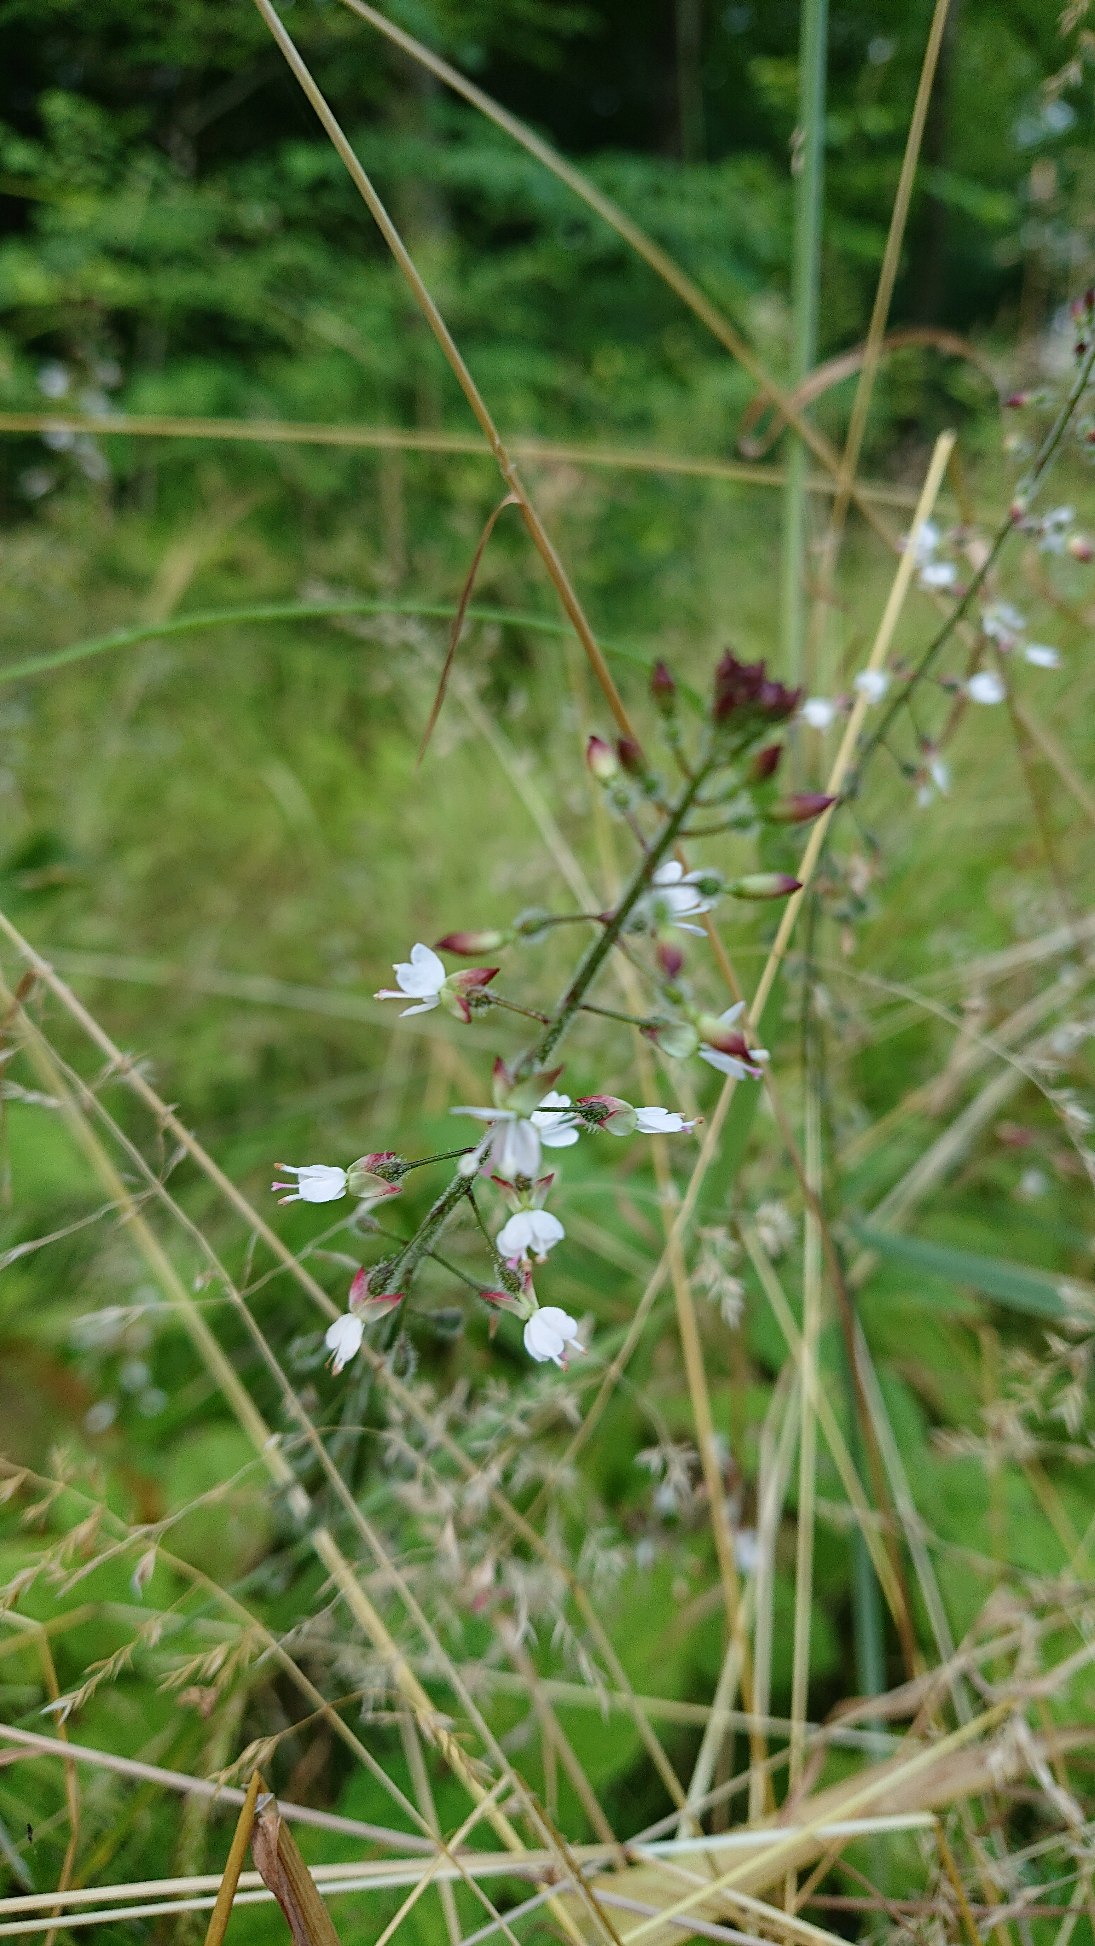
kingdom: Plantae
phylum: Tracheophyta
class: Magnoliopsida
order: Myrtales
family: Onagraceae
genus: Circaea
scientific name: Circaea lutetiana
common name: Dunet steffensurt
